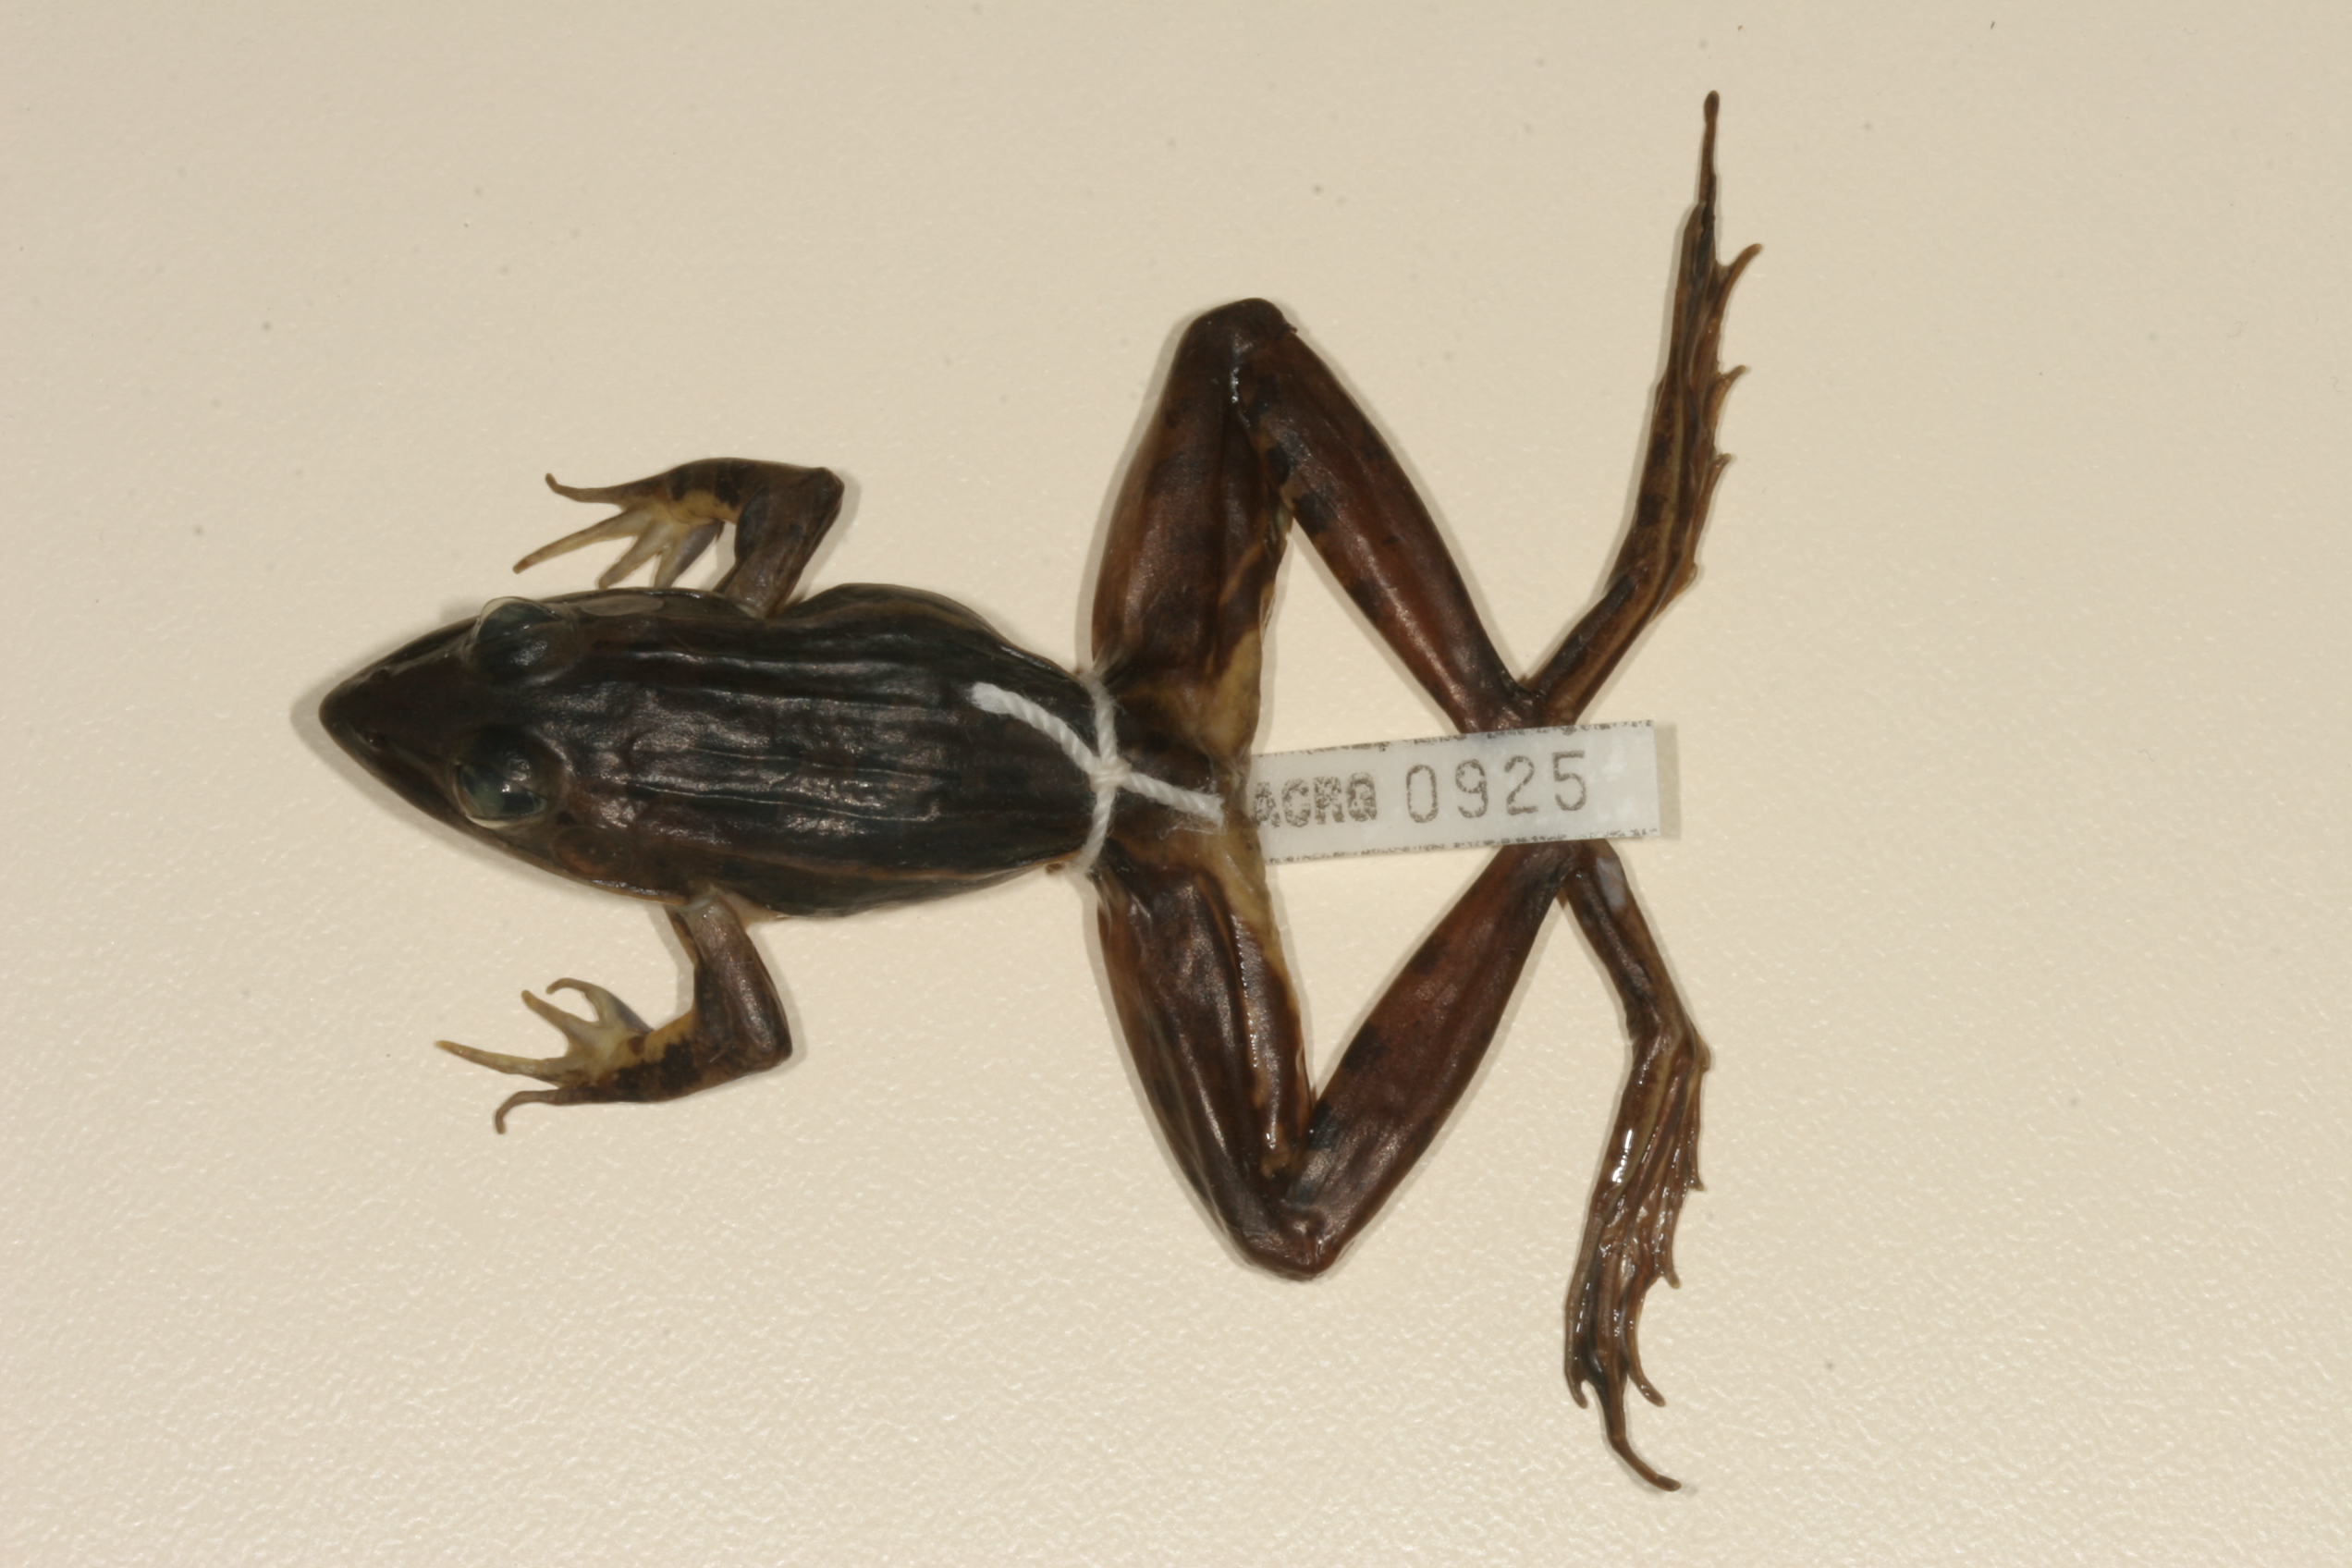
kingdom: Animalia
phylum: Chordata
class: Amphibia
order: Anura
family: Ptychadenidae
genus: Ptychadena
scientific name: Ptychadena subpunctata
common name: Bocage's grassland frog
